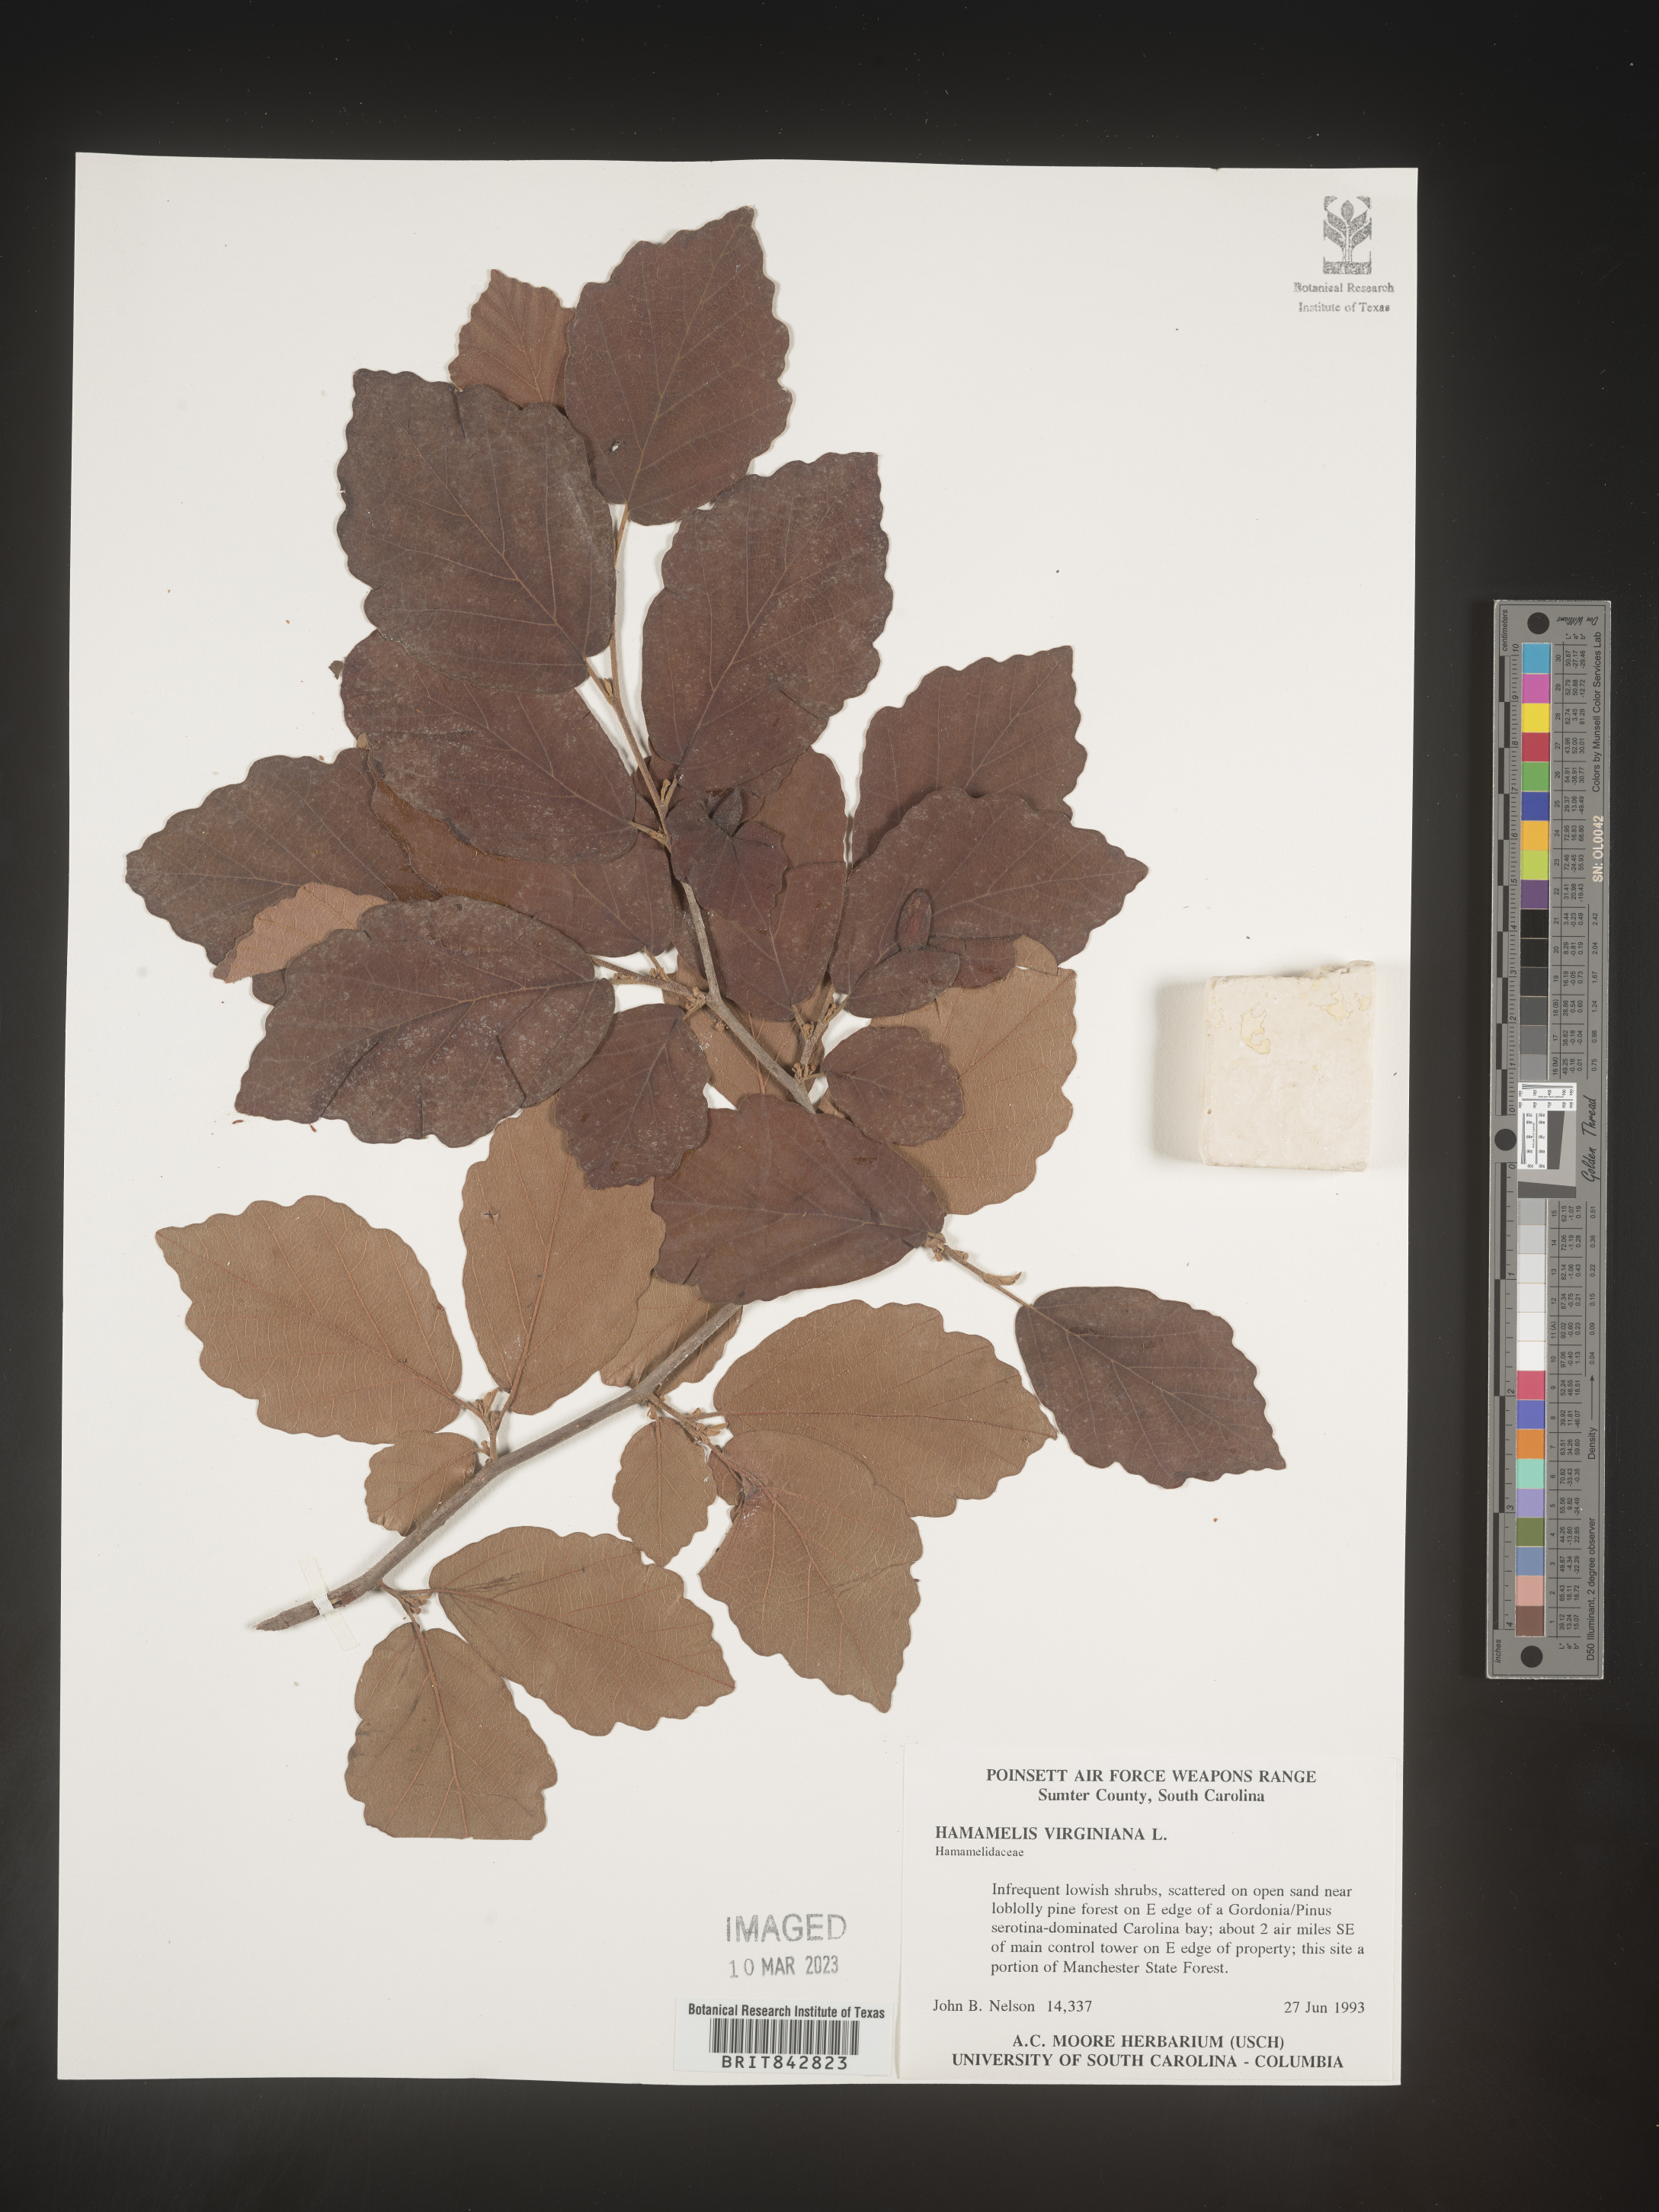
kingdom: Plantae
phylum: Tracheophyta
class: Magnoliopsida
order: Saxifragales
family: Hamamelidaceae
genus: Hamamelis
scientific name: Hamamelis virginiana
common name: Witch-hazel
